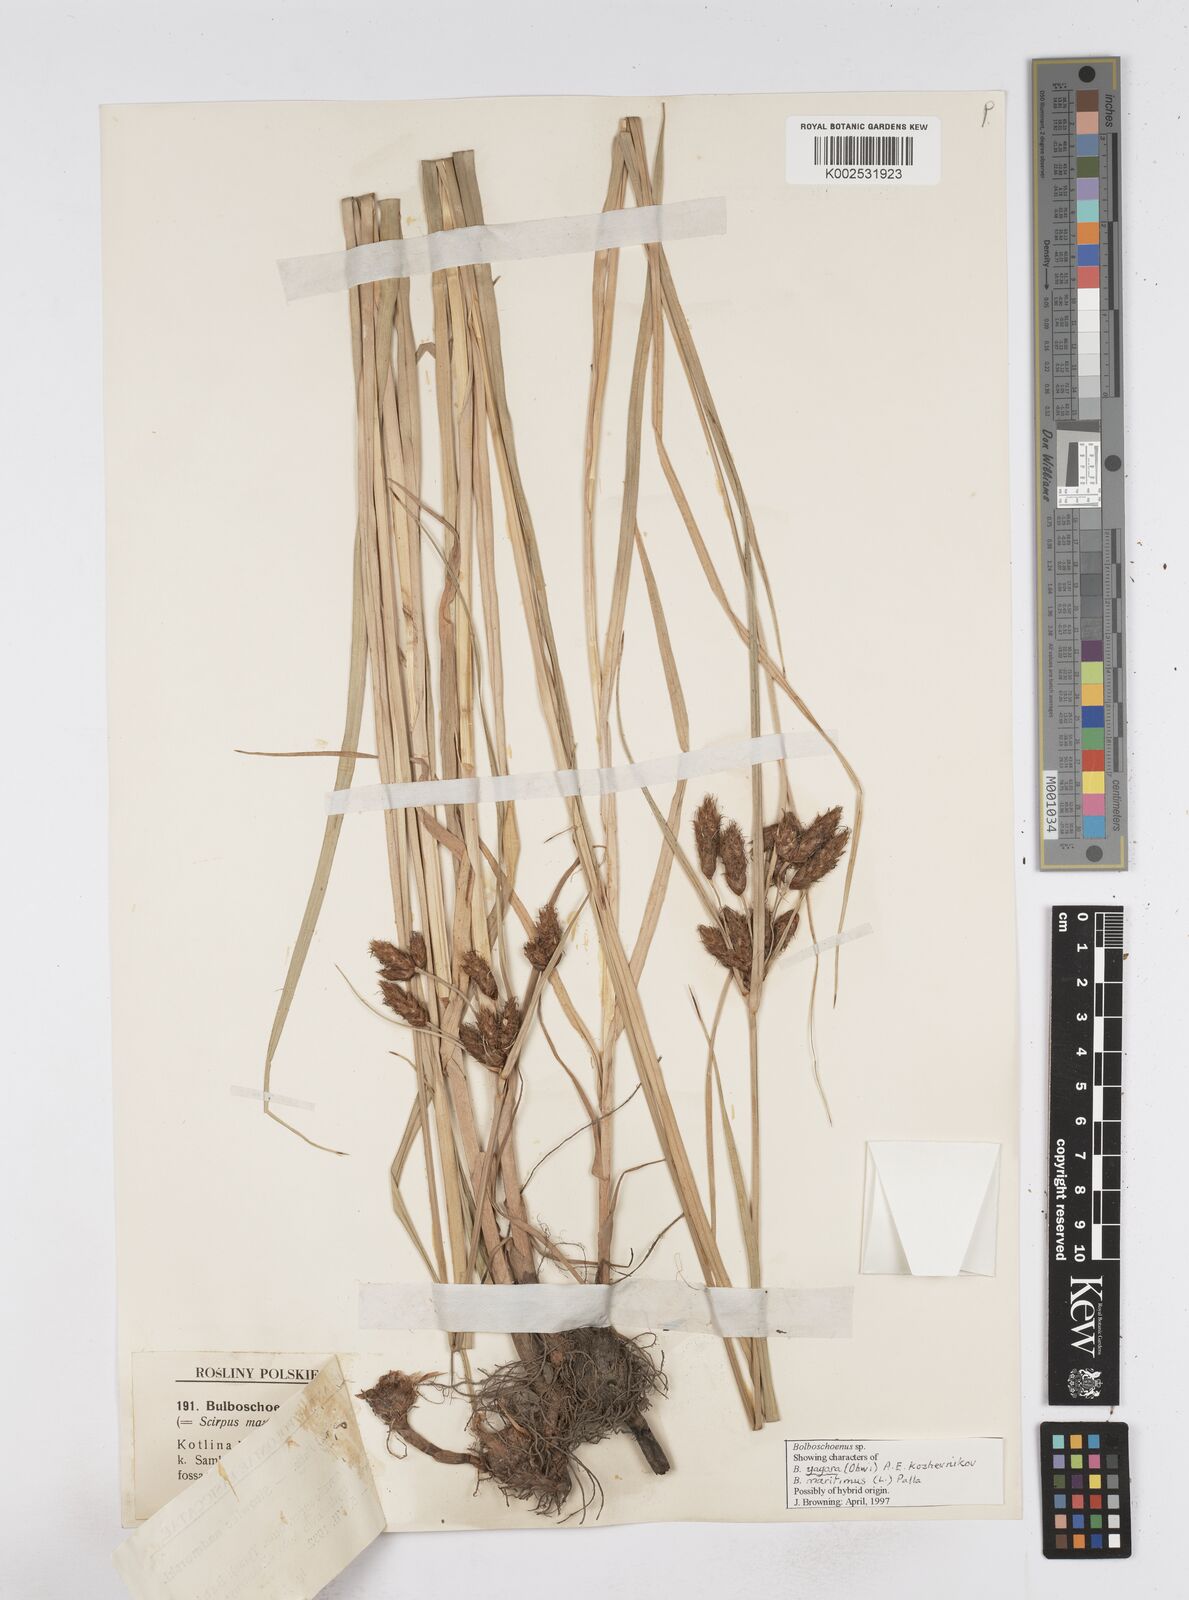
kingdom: Plantae
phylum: Tracheophyta
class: Liliopsida
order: Poales
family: Cyperaceae
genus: Bolboschoenus
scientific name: Bolboschoenus maritimus
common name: Sea club-rush
